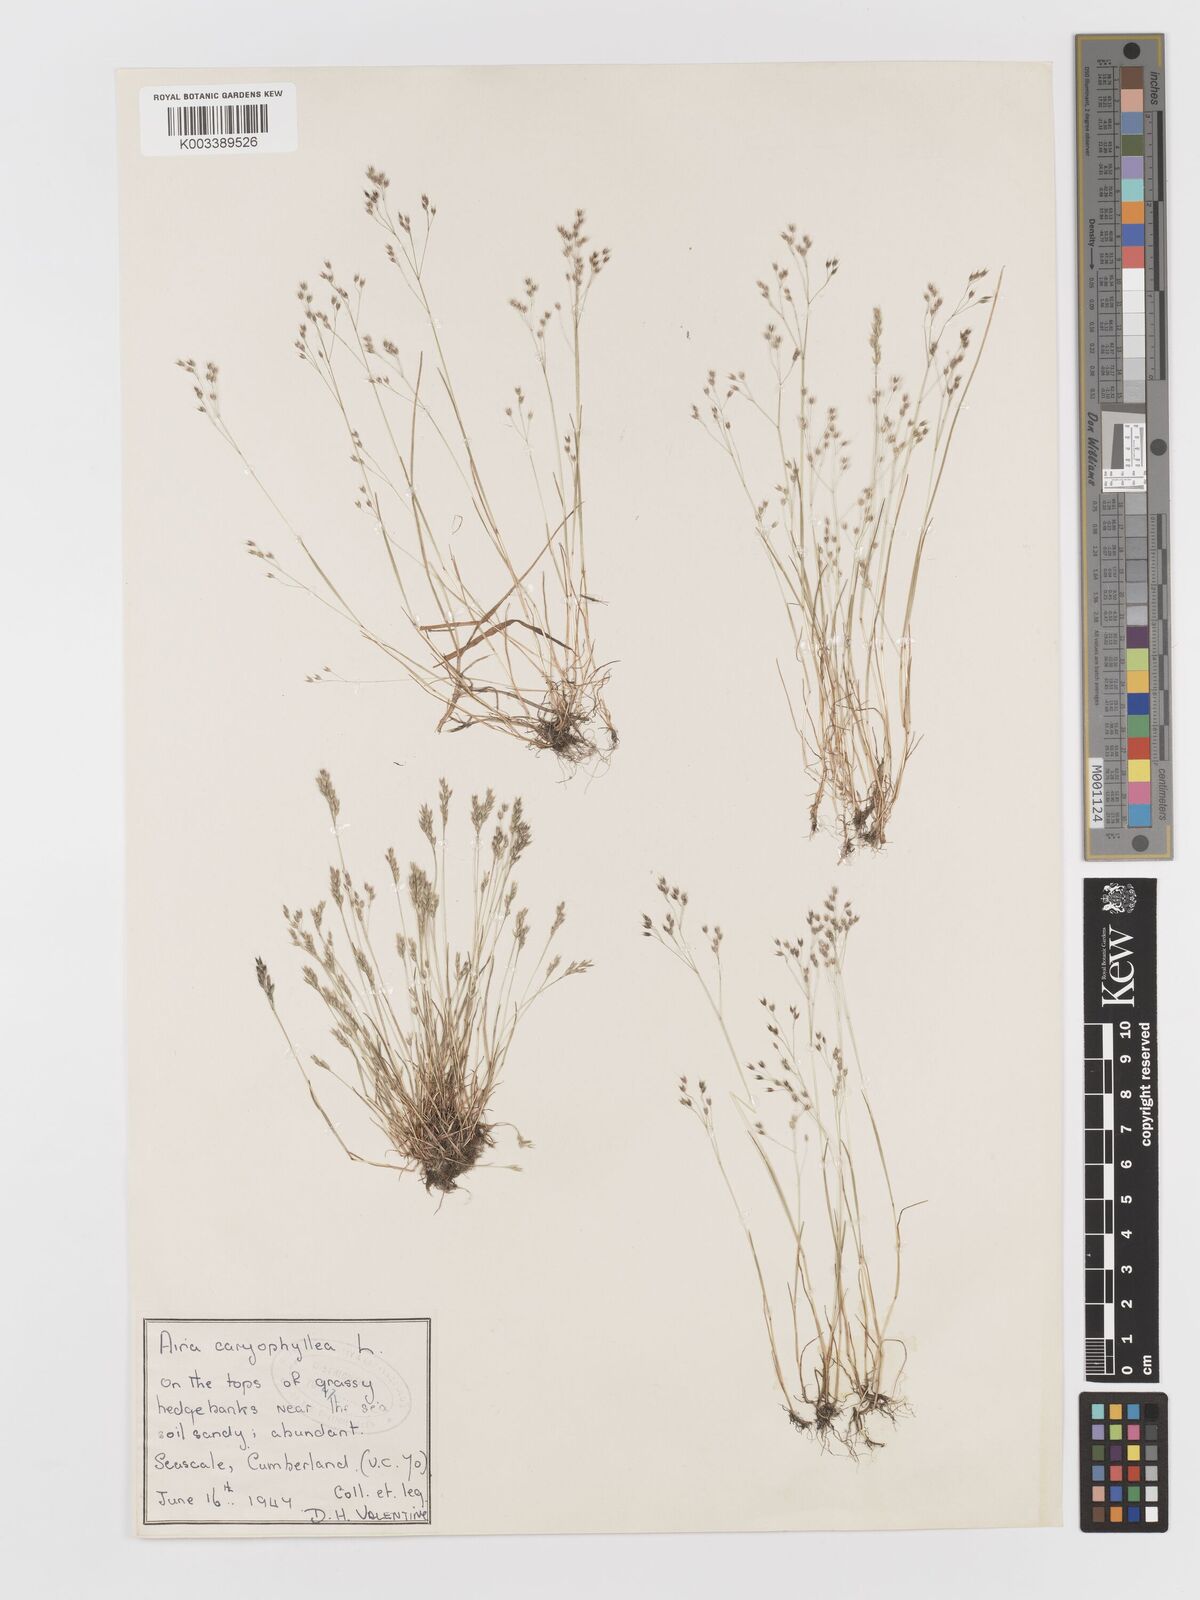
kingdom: Plantae
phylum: Tracheophyta
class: Liliopsida
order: Poales
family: Poaceae
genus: Aira
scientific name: Aira caryophyllea
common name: Silver hairgrass
